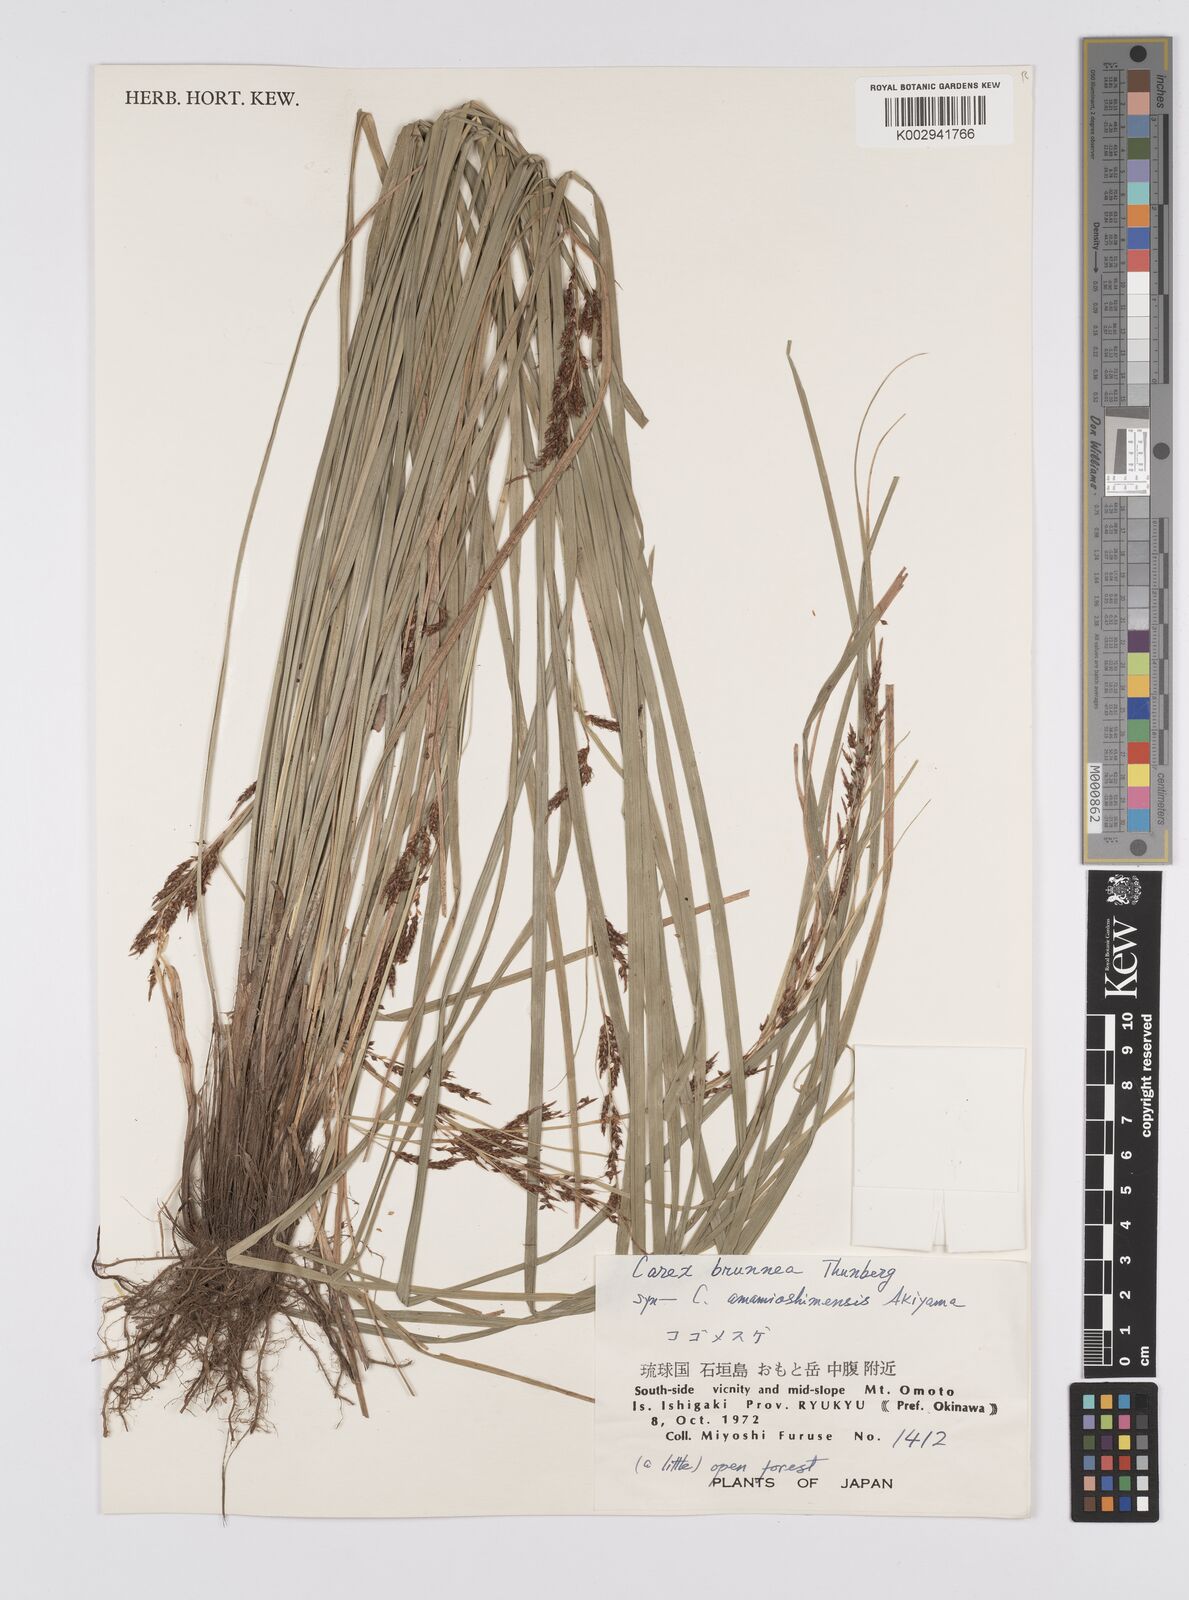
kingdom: Plantae
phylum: Tracheophyta
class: Liliopsida
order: Poales
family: Cyperaceae
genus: Carex
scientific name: Carex brunnea
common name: Greater brown sedge
